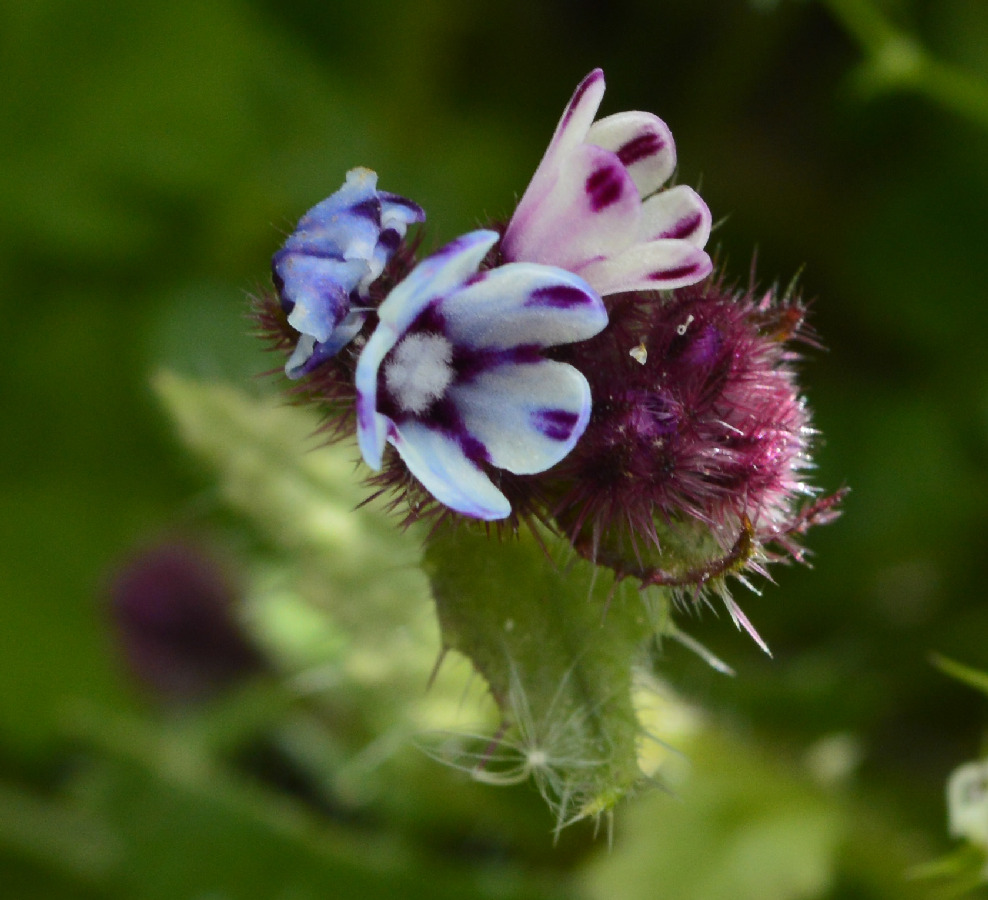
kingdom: Plantae
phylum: Tracheophyta
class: Magnoliopsida
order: Boraginales
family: Boraginaceae
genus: Anchusella
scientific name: Anchusella variegata
